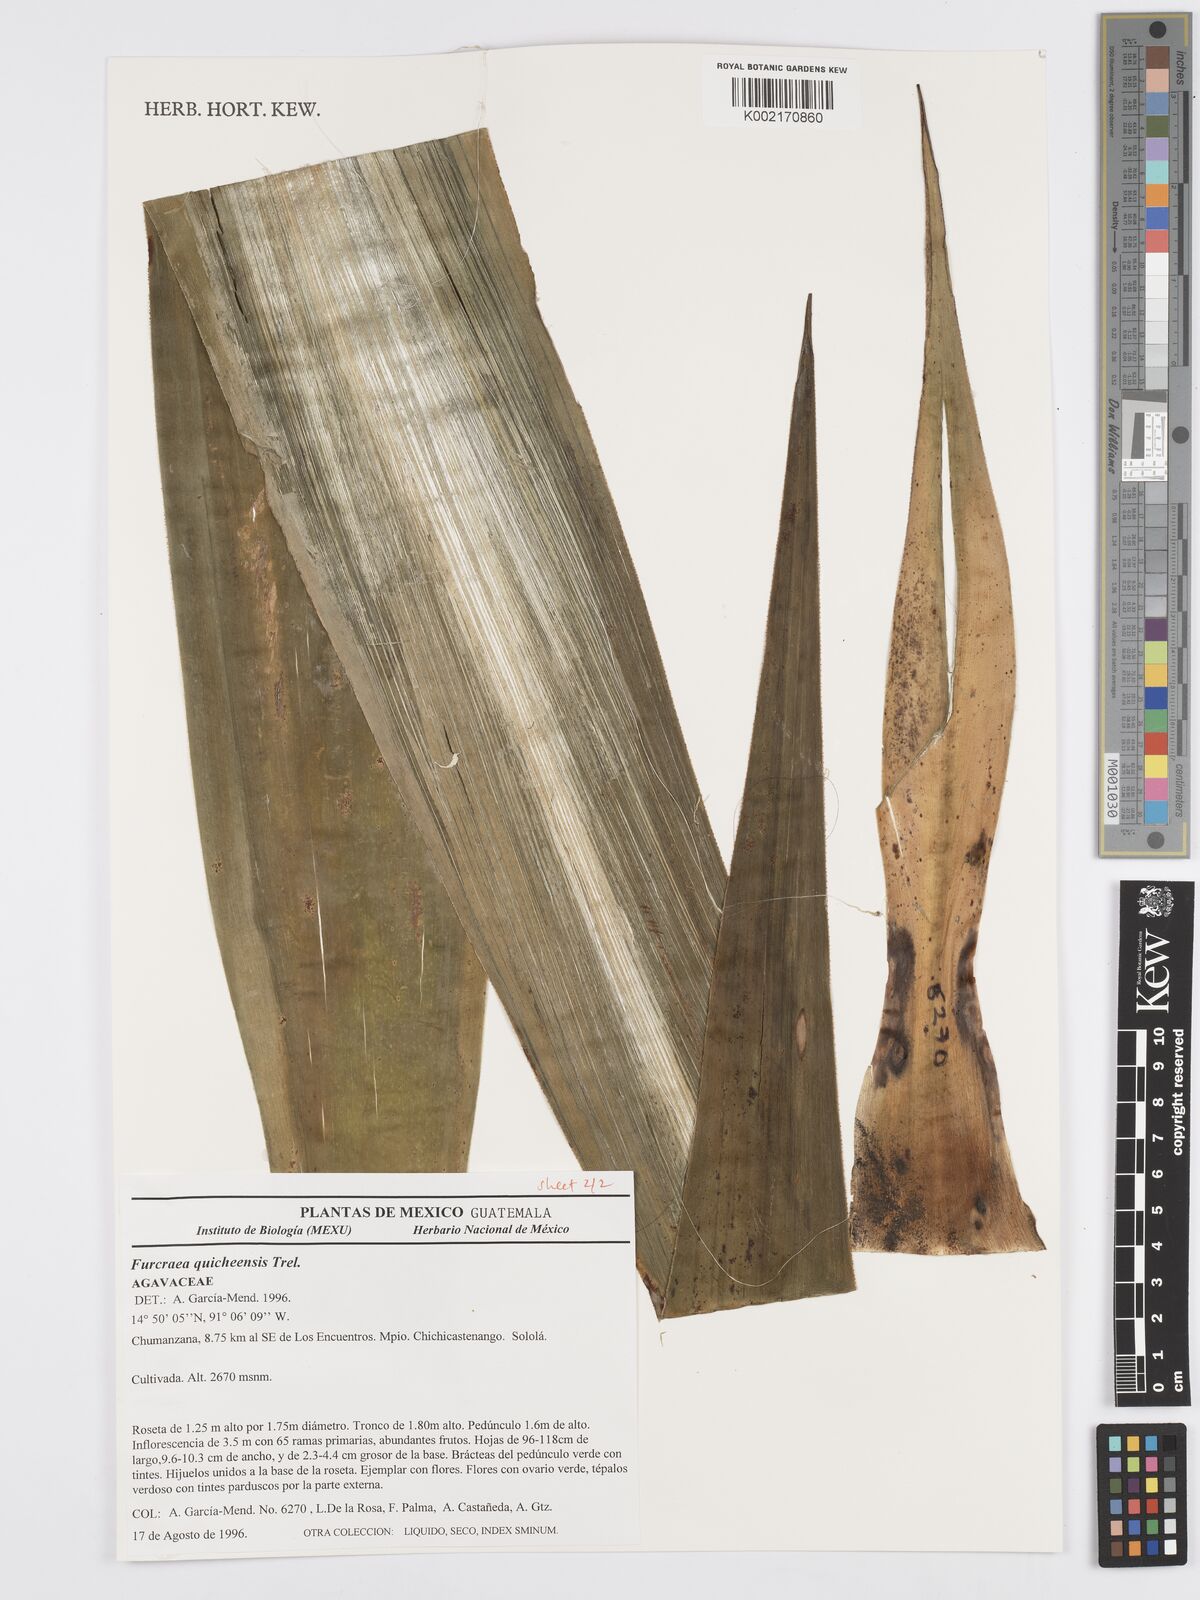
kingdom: Plantae
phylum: Tracheophyta
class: Liliopsida
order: Asparagales
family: Asparagaceae
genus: Furcraea
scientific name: Furcraea quicheensis
